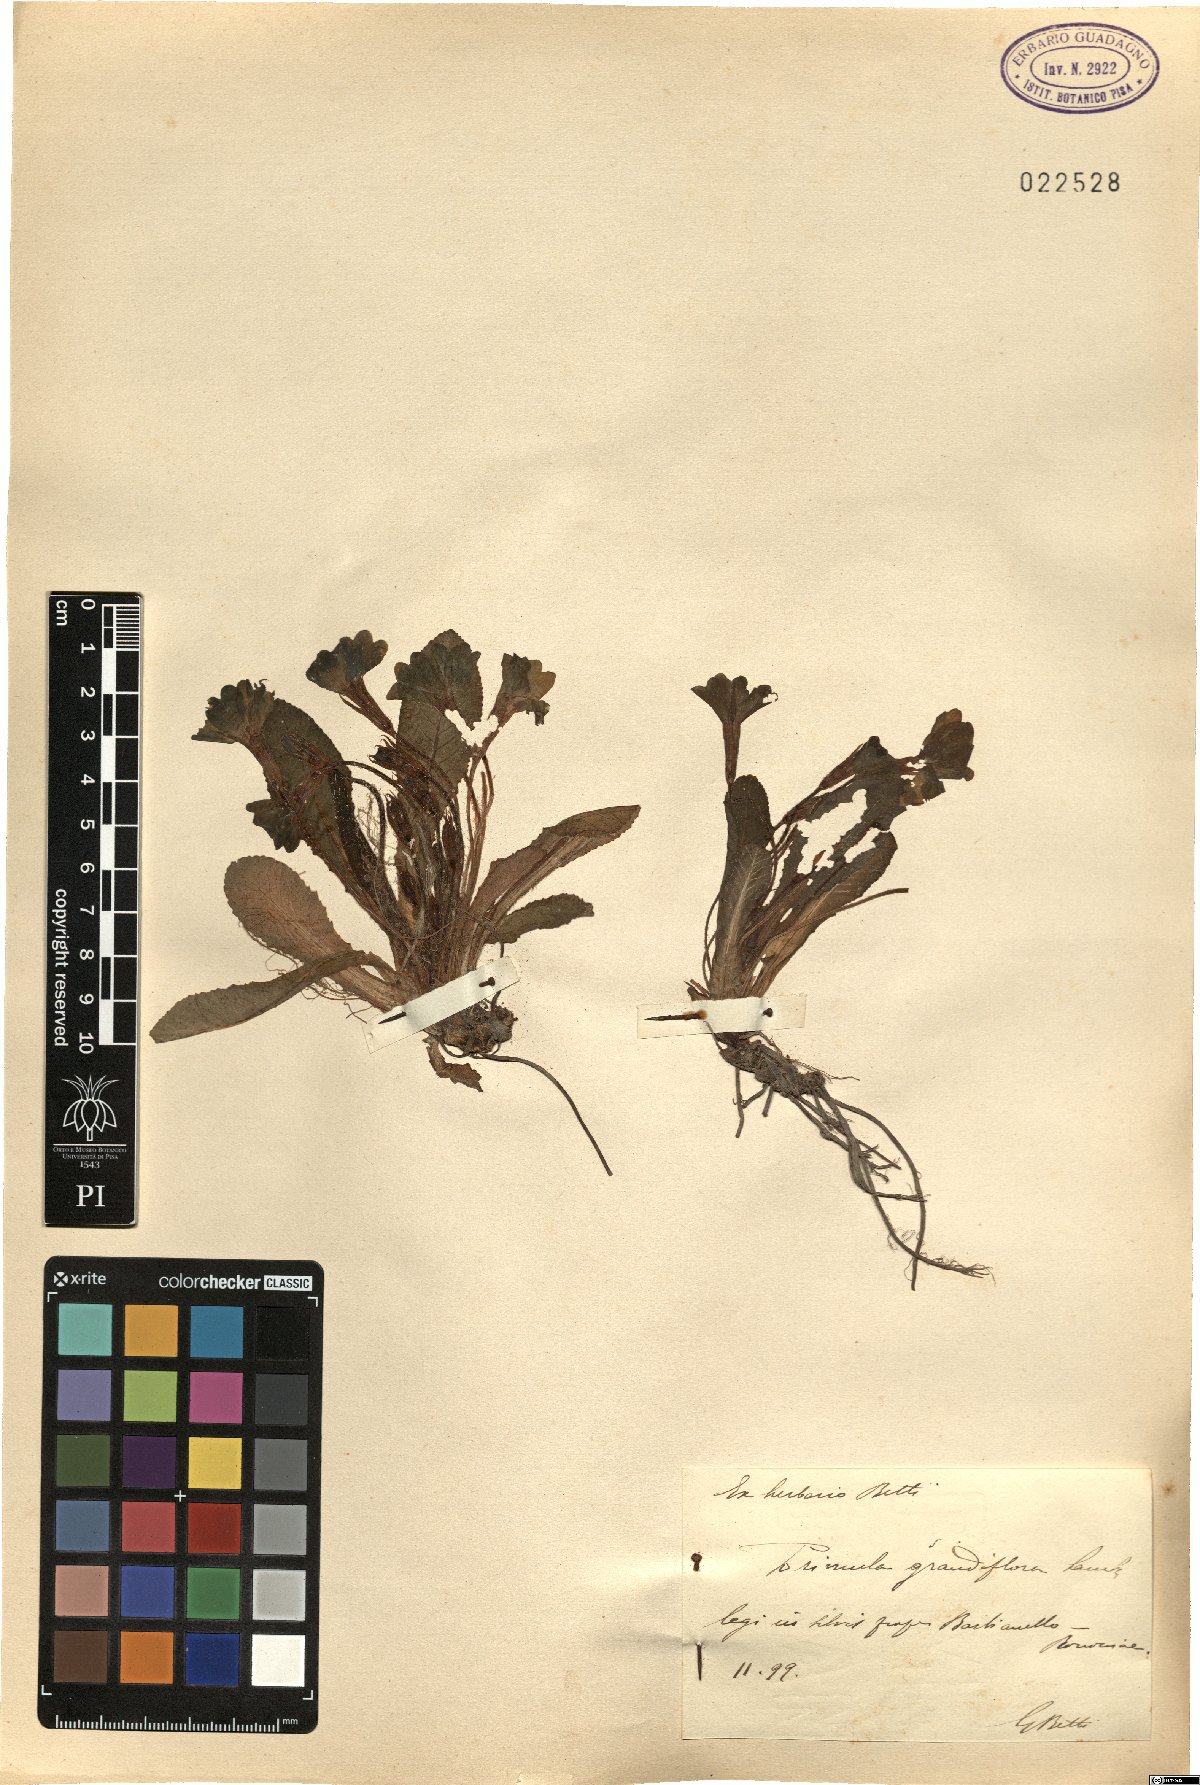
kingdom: Plantae
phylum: Tracheophyta
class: Magnoliopsida
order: Ericales
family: Primulaceae
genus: Primula
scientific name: Primula vulgaris
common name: Primrose
